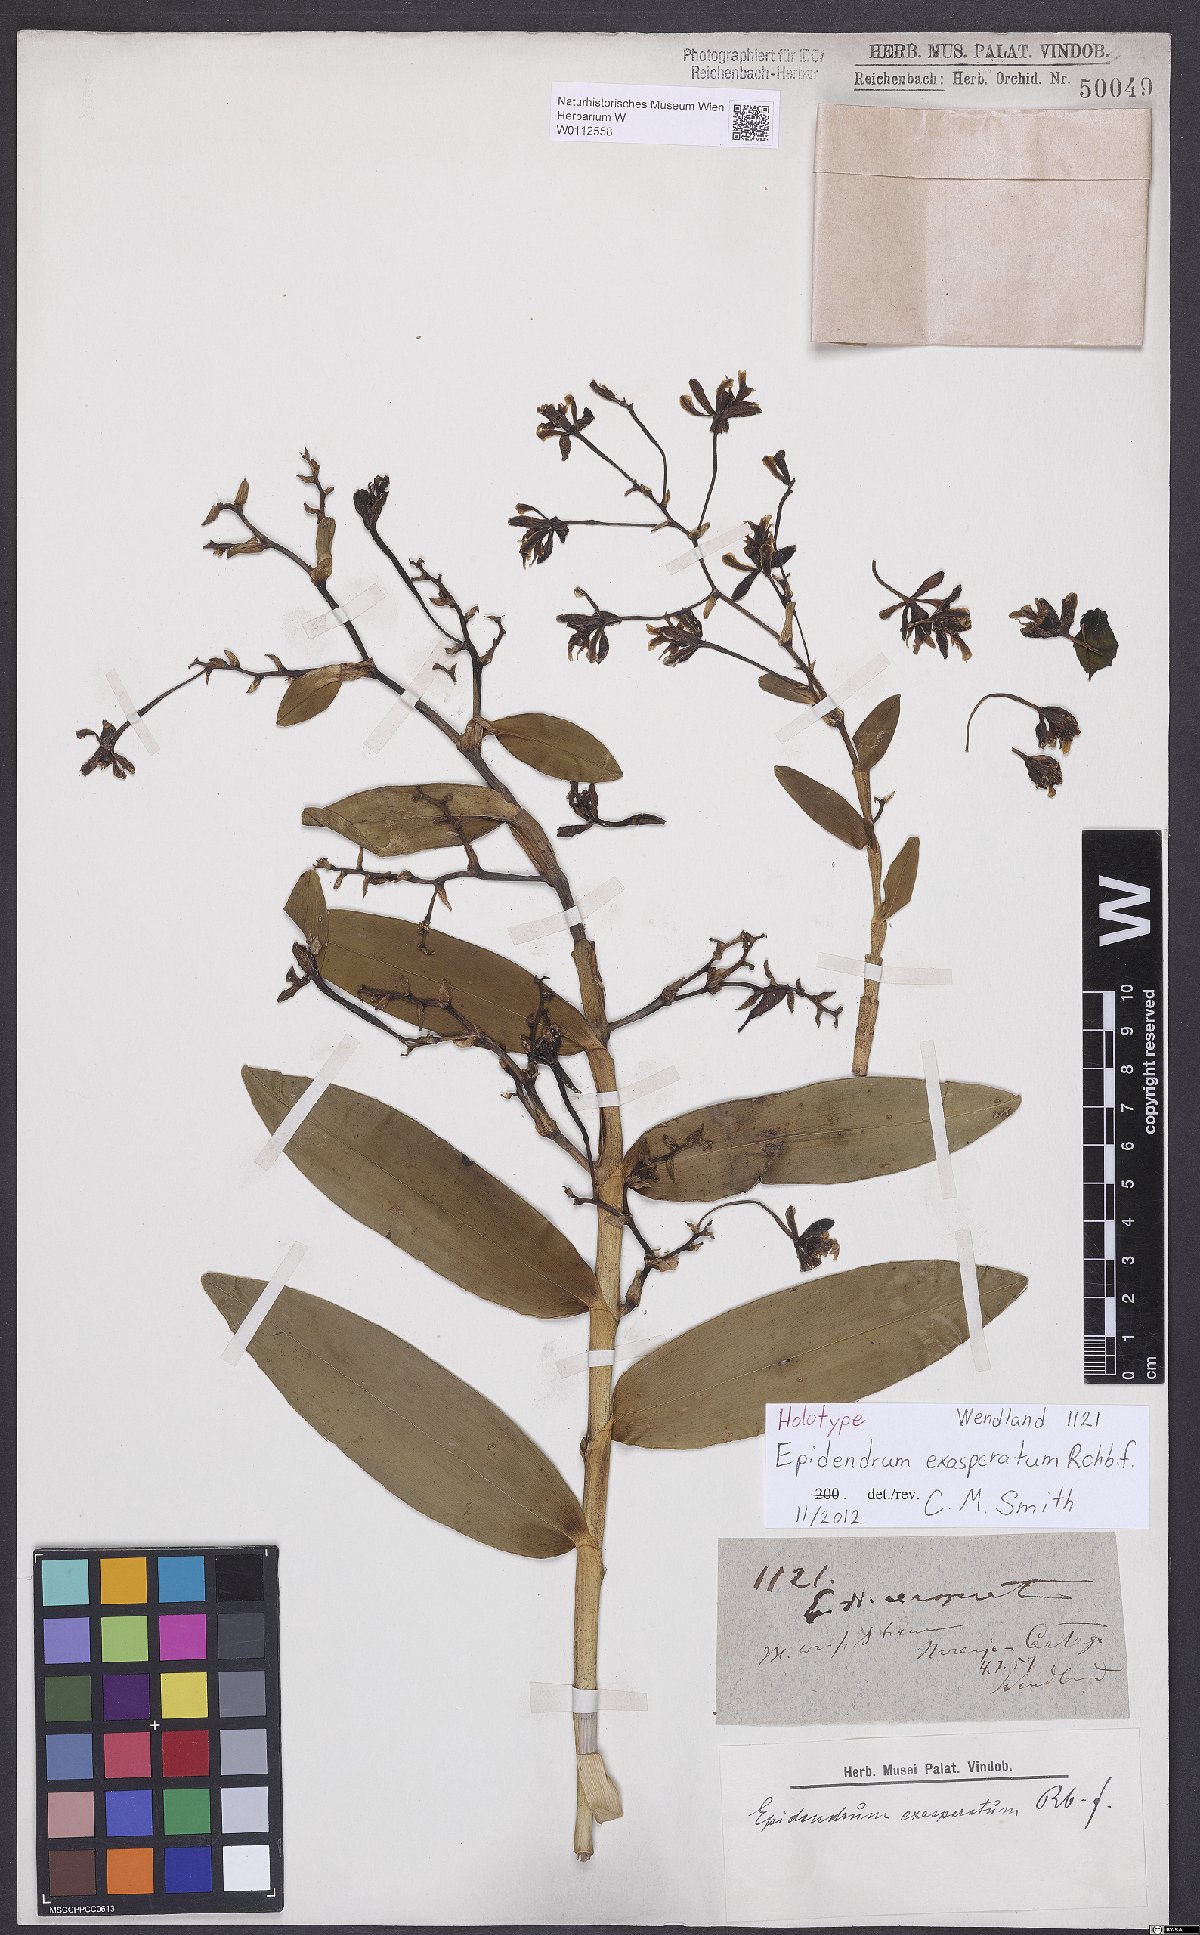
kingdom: Plantae
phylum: Tracheophyta
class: Liliopsida
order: Asparagales
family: Orchidaceae
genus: Epidendrum
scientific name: Epidendrum exasperatum
